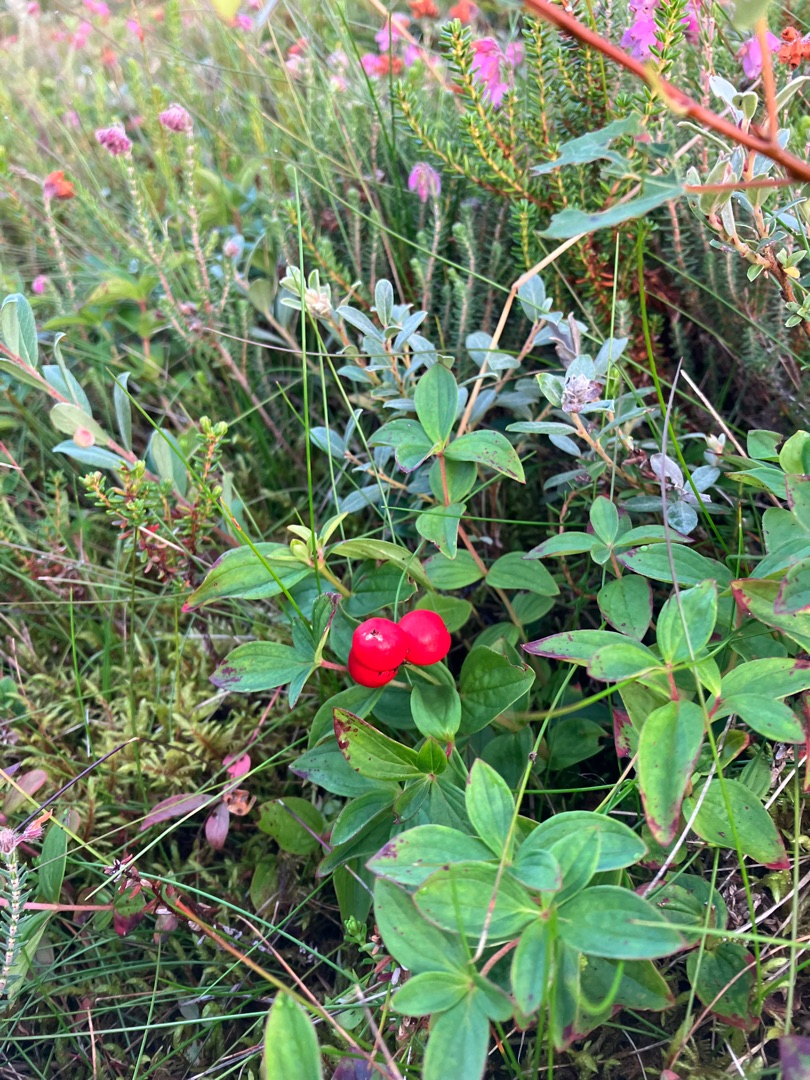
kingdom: Plantae
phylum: Tracheophyta
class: Magnoliopsida
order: Cornales
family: Cornaceae
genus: Cornus
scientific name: Cornus suecica
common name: Hønsebær
